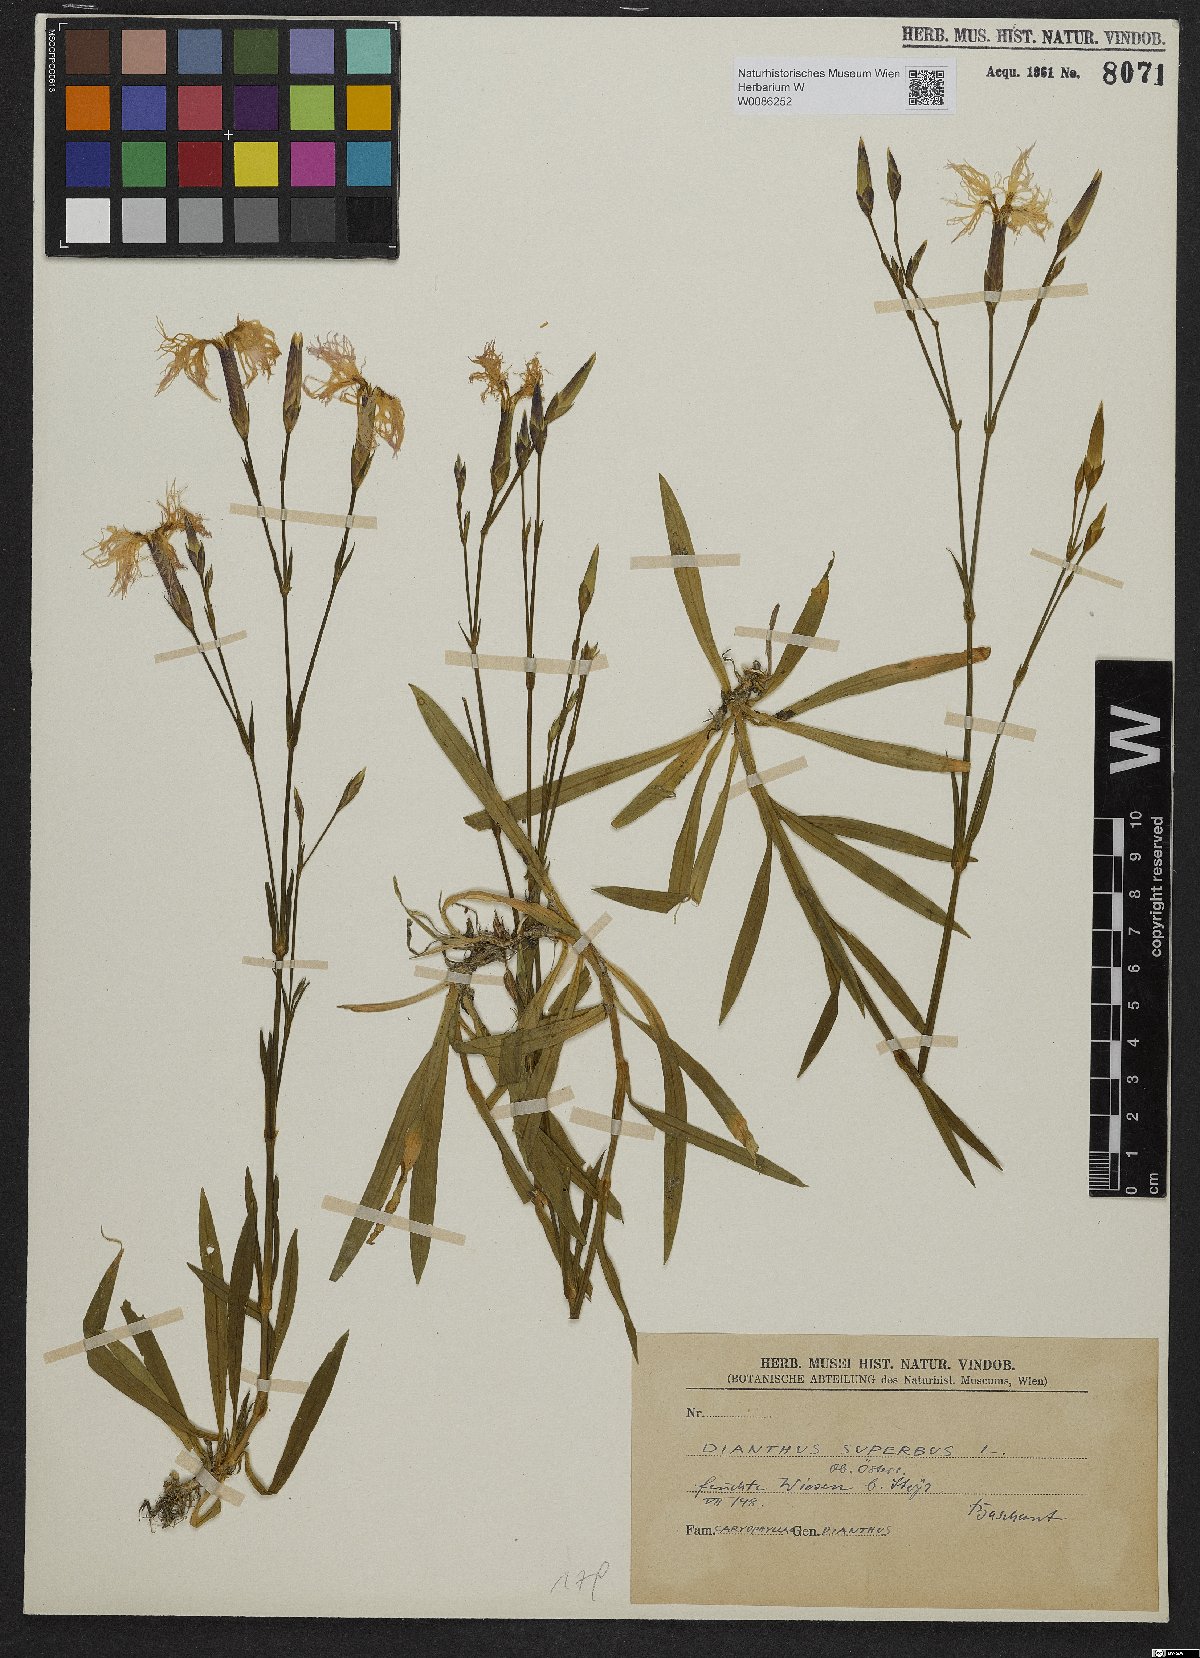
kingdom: Plantae
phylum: Tracheophyta
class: Magnoliopsida
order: Caryophyllales
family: Caryophyllaceae
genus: Dianthus
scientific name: Dianthus superbus
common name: Fringed pink
